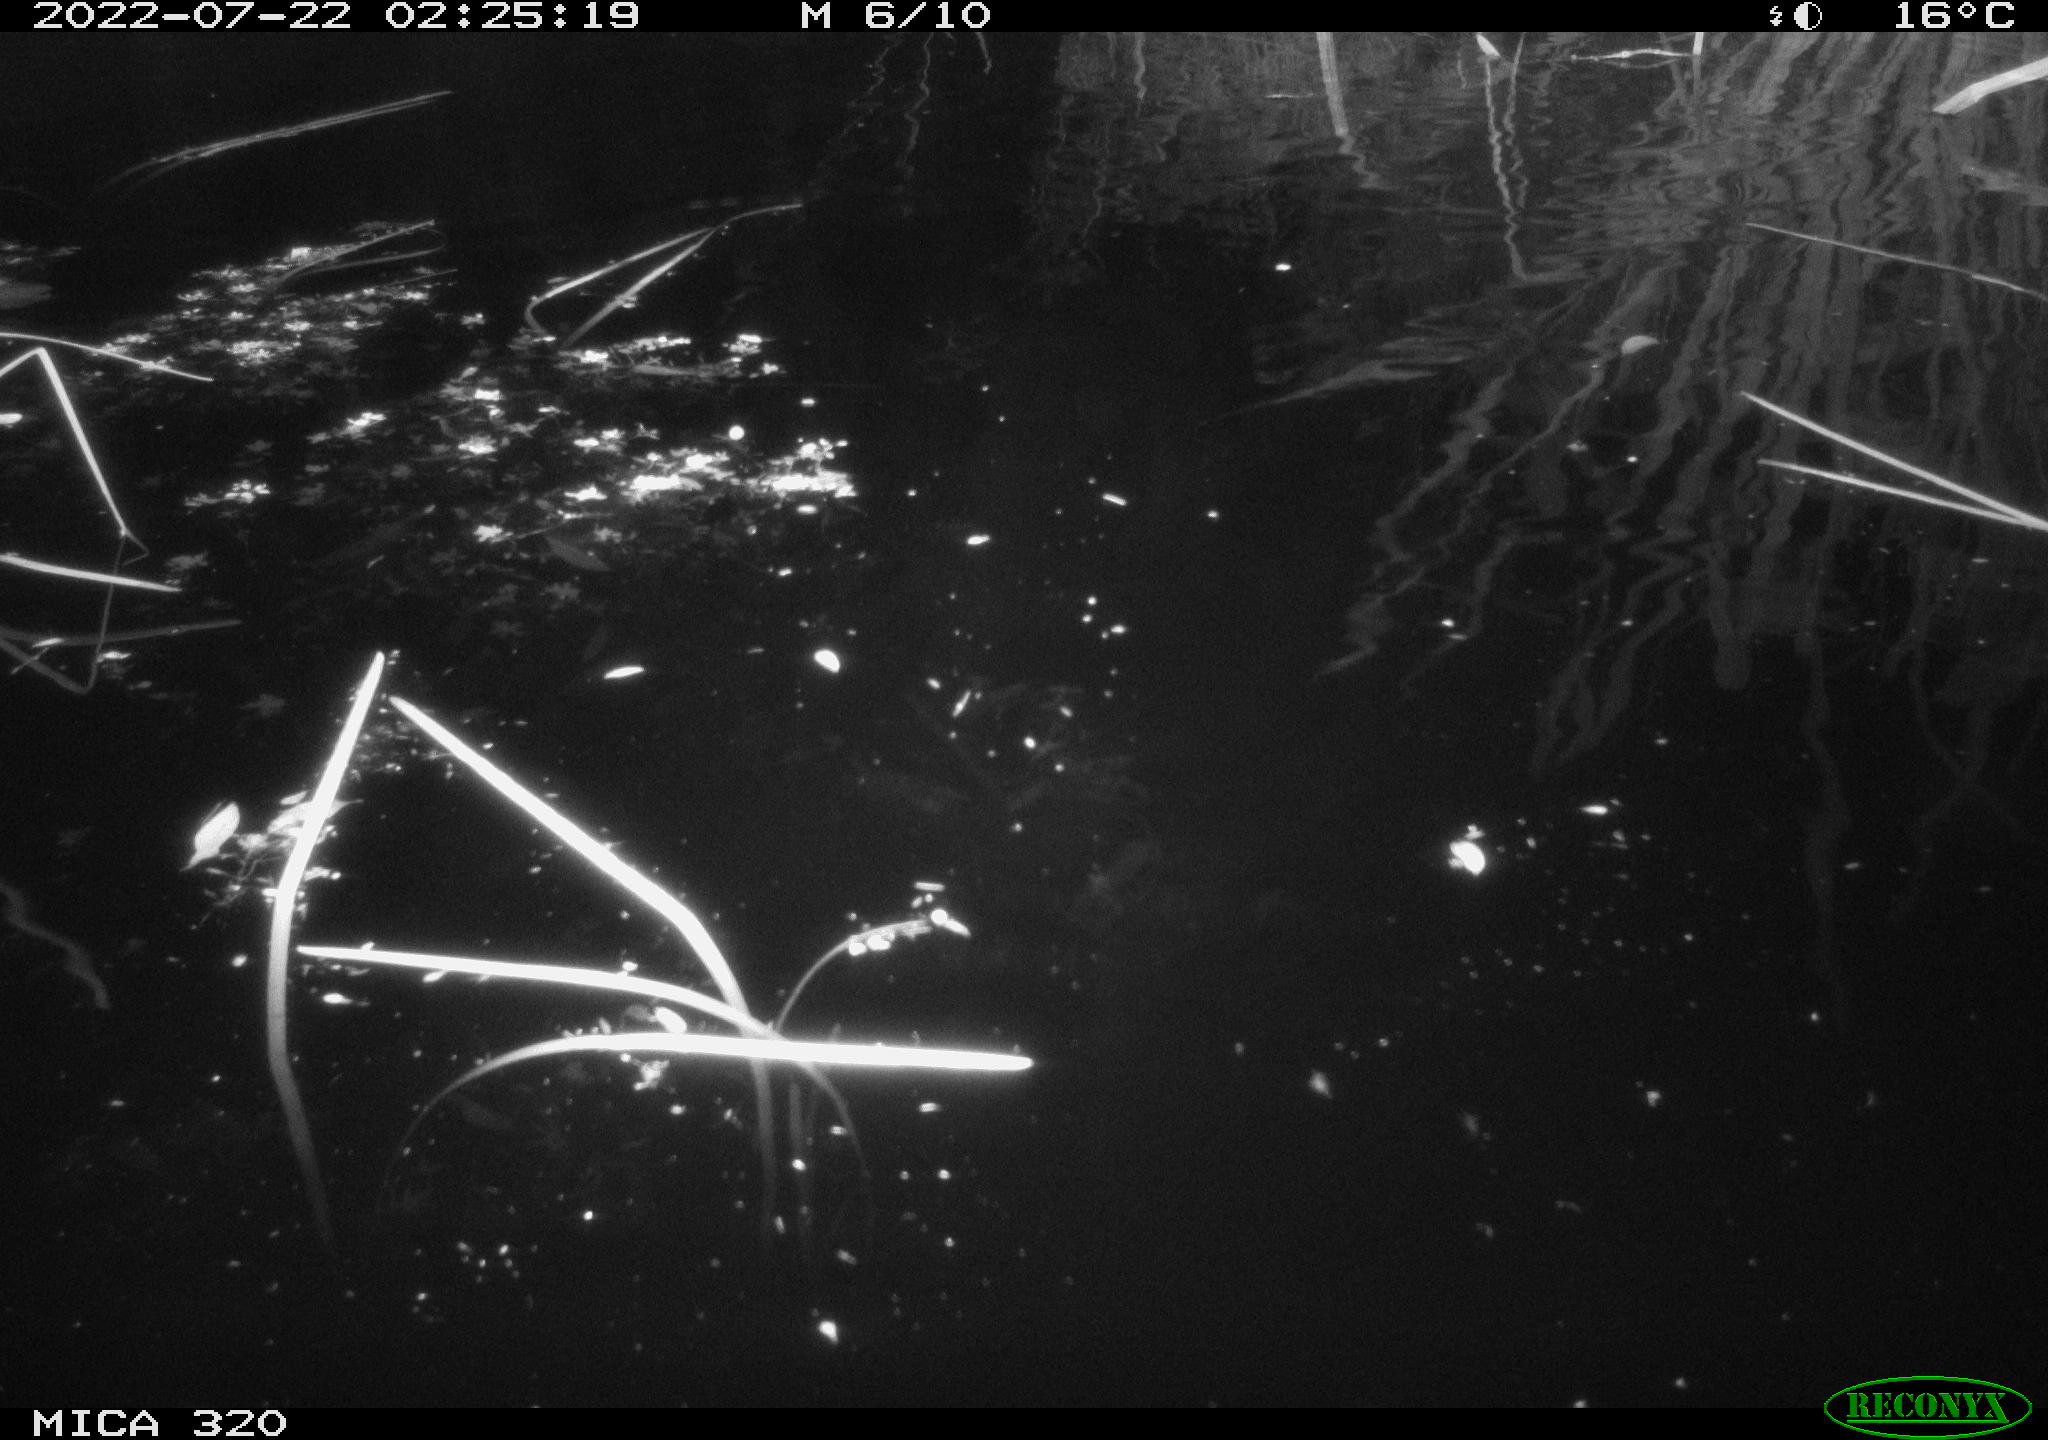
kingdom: Animalia
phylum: Chordata
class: Aves
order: Anseriformes
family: Anatidae
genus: Anas
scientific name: Anas platyrhynchos
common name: Mallard
